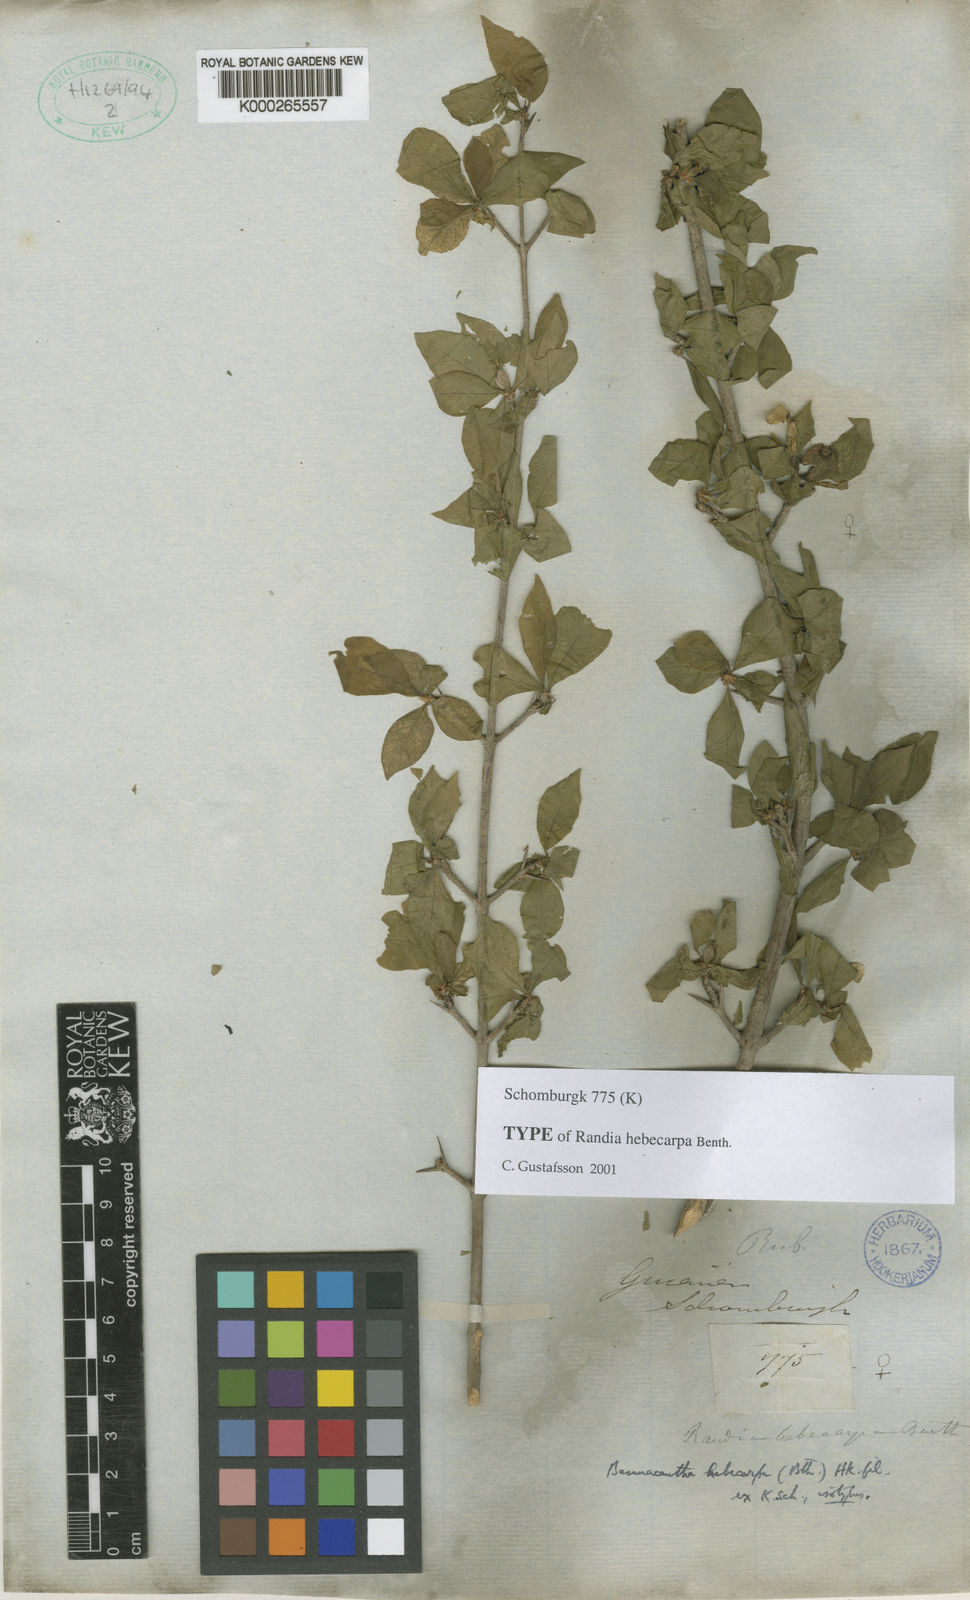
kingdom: Plantae
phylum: Tracheophyta
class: Magnoliopsida
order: Gentianales
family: Rubiaceae
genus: Randia
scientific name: Randia hebecarpa
